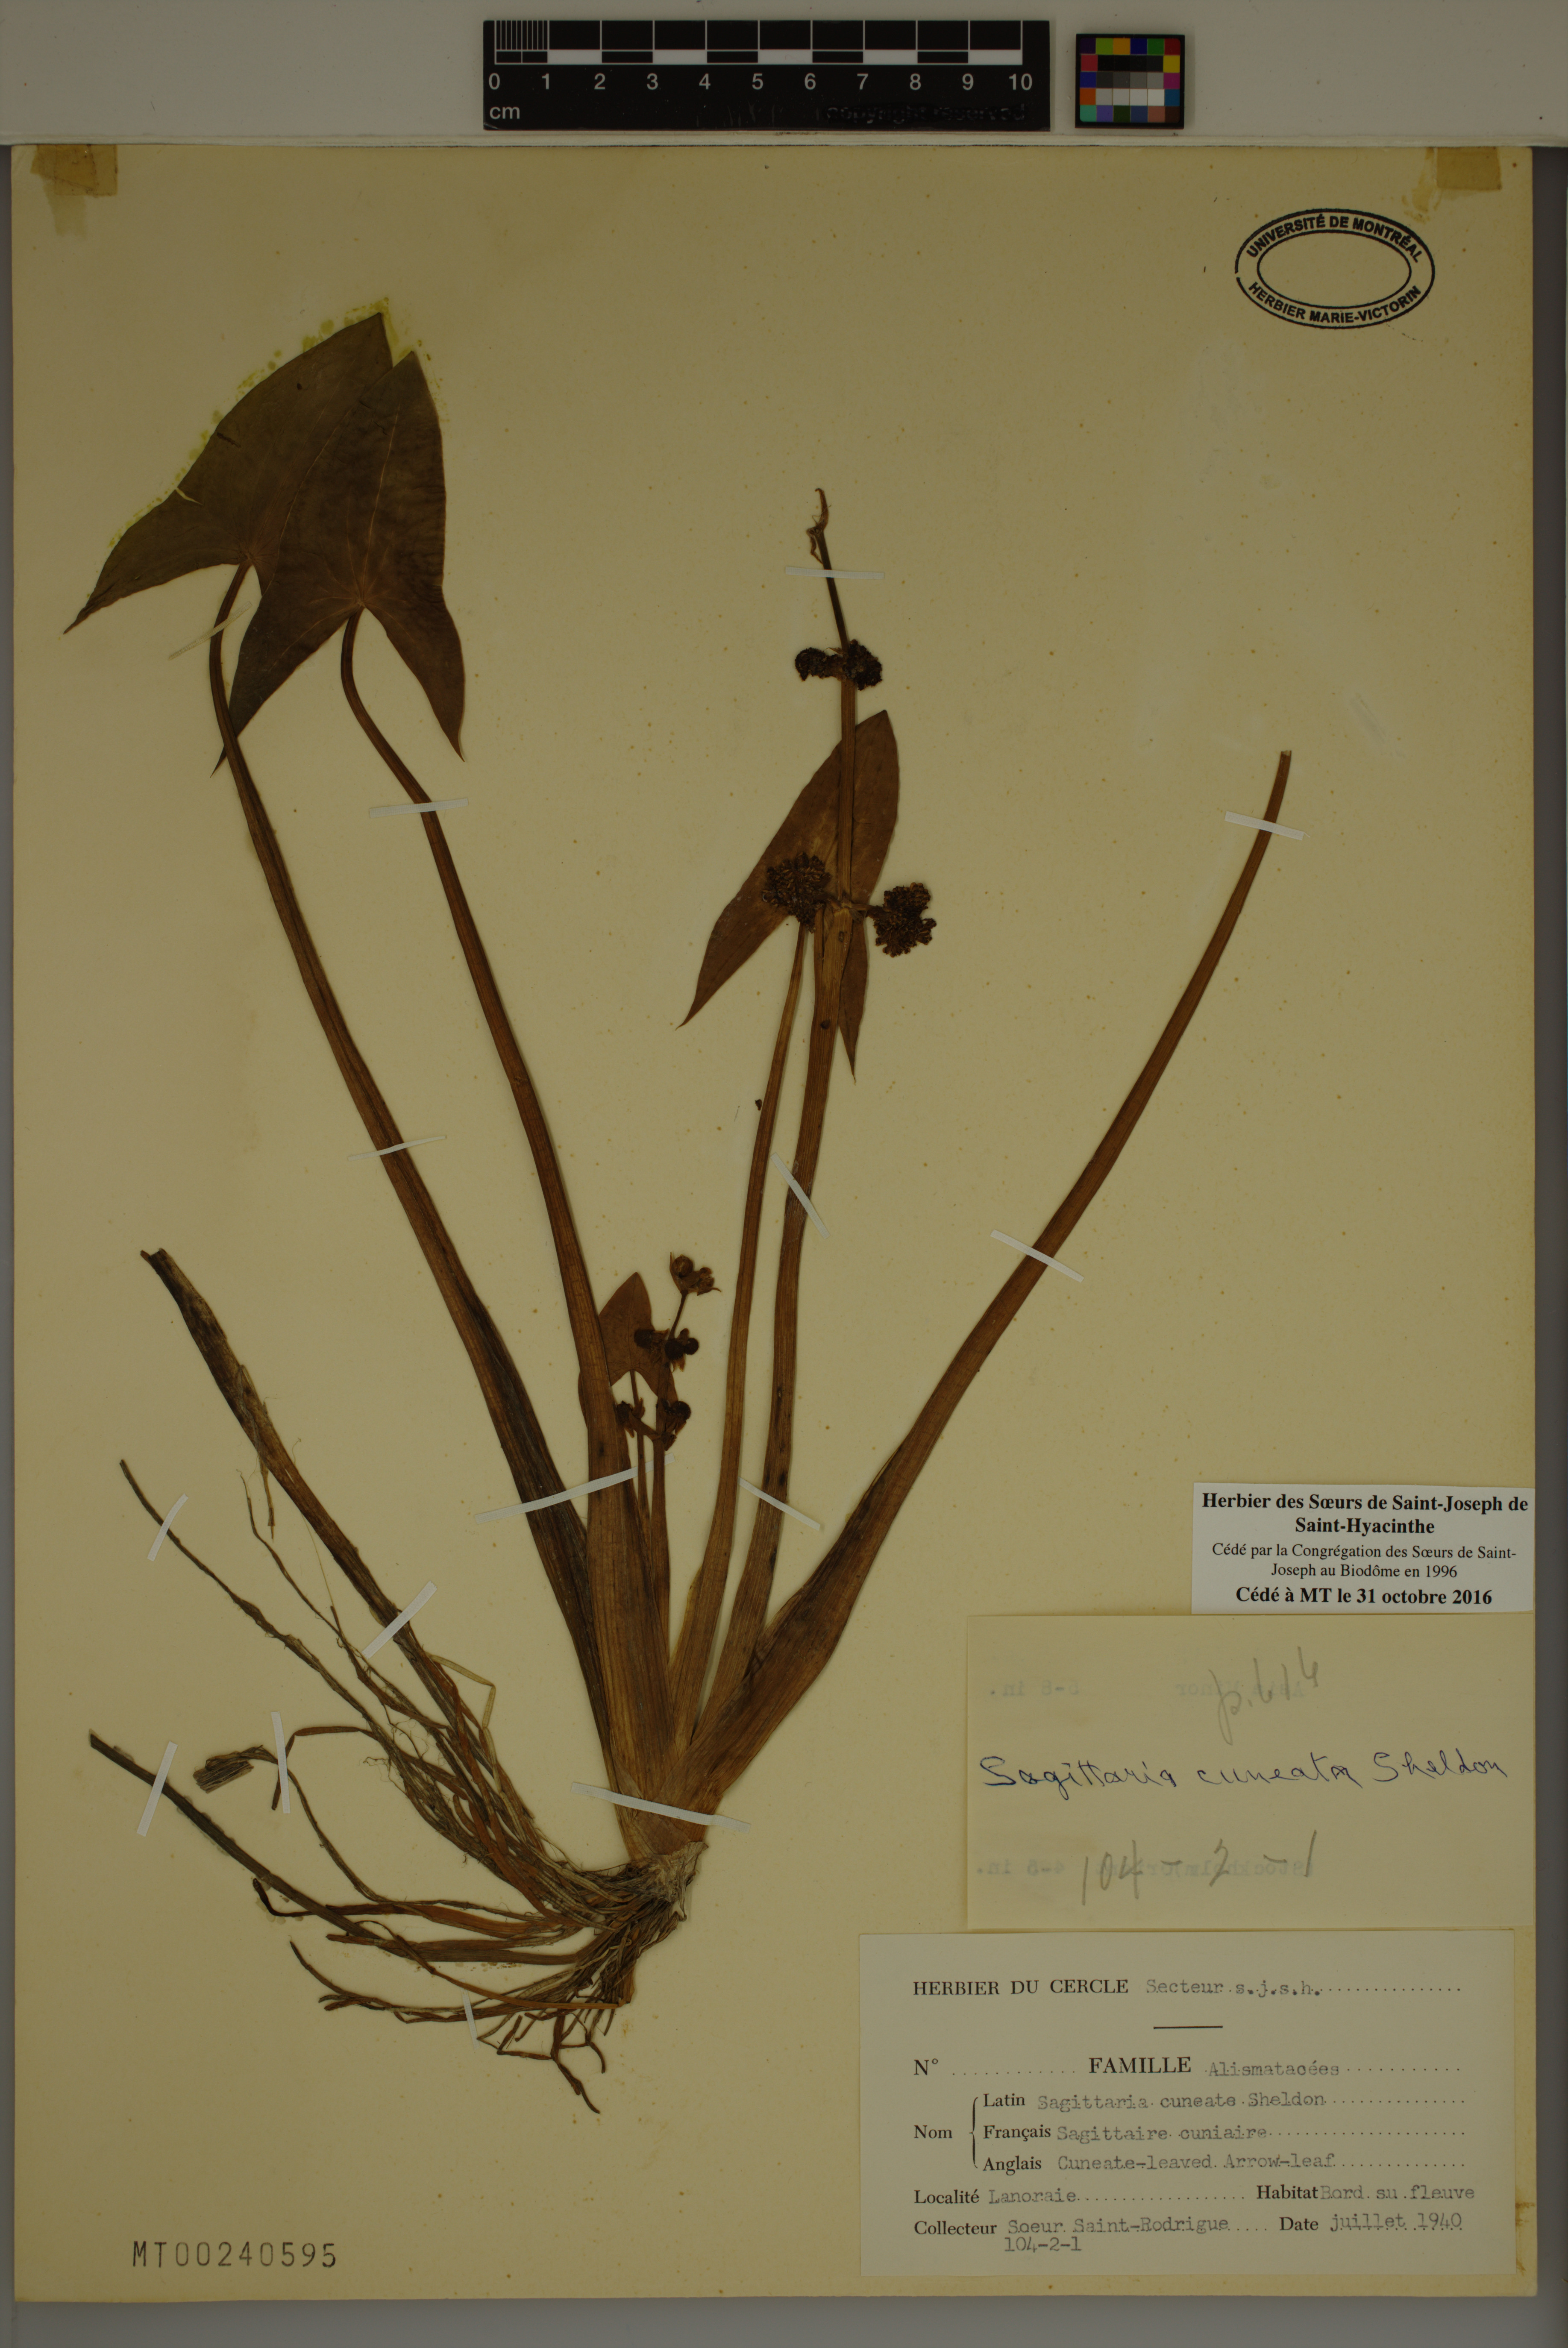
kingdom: Plantae
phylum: Tracheophyta
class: Liliopsida
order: Alismatales
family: Alismataceae
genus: Sagittaria
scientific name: Sagittaria cuneata
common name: Northern arrowhead
